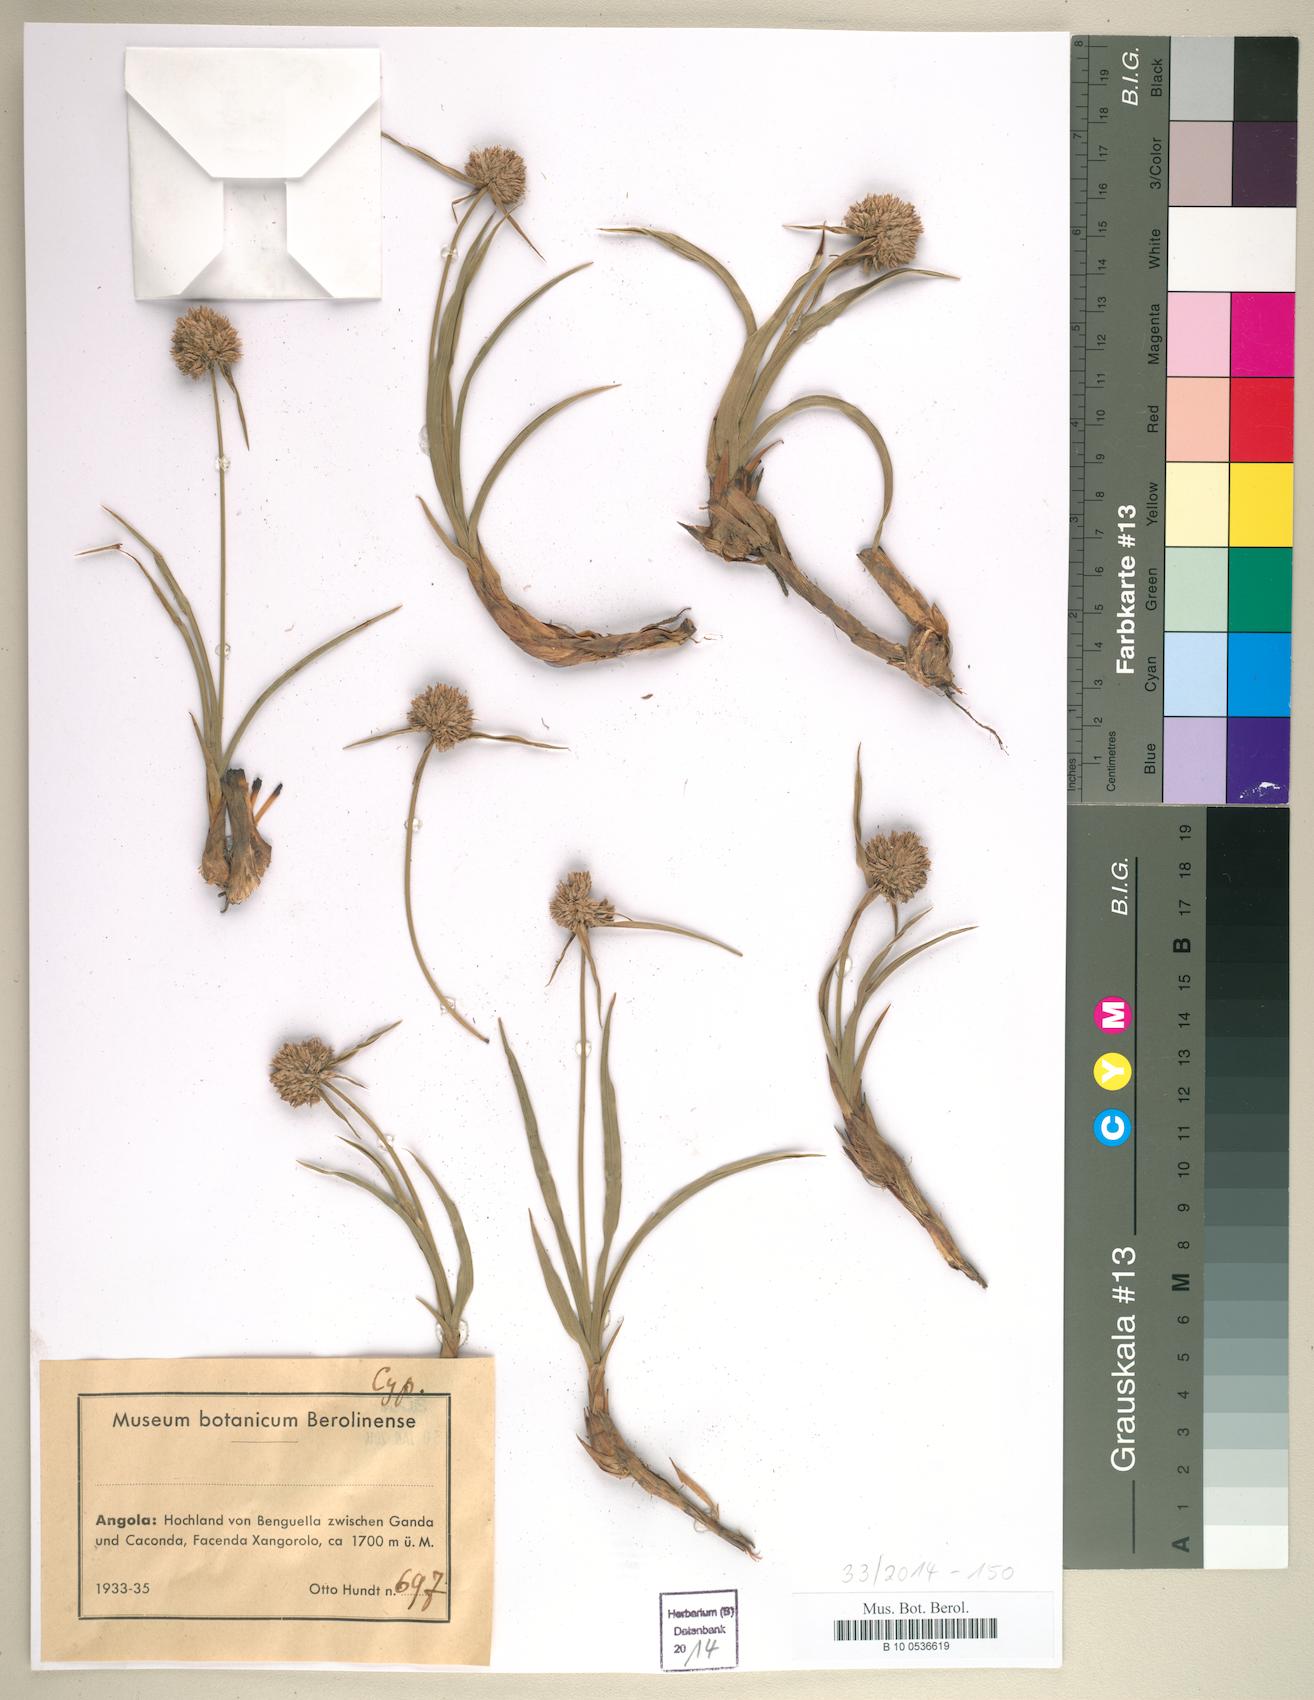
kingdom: Plantae
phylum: Tracheophyta
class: Liliopsida
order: Poales
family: Cyperaceae
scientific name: Cyperaceae
